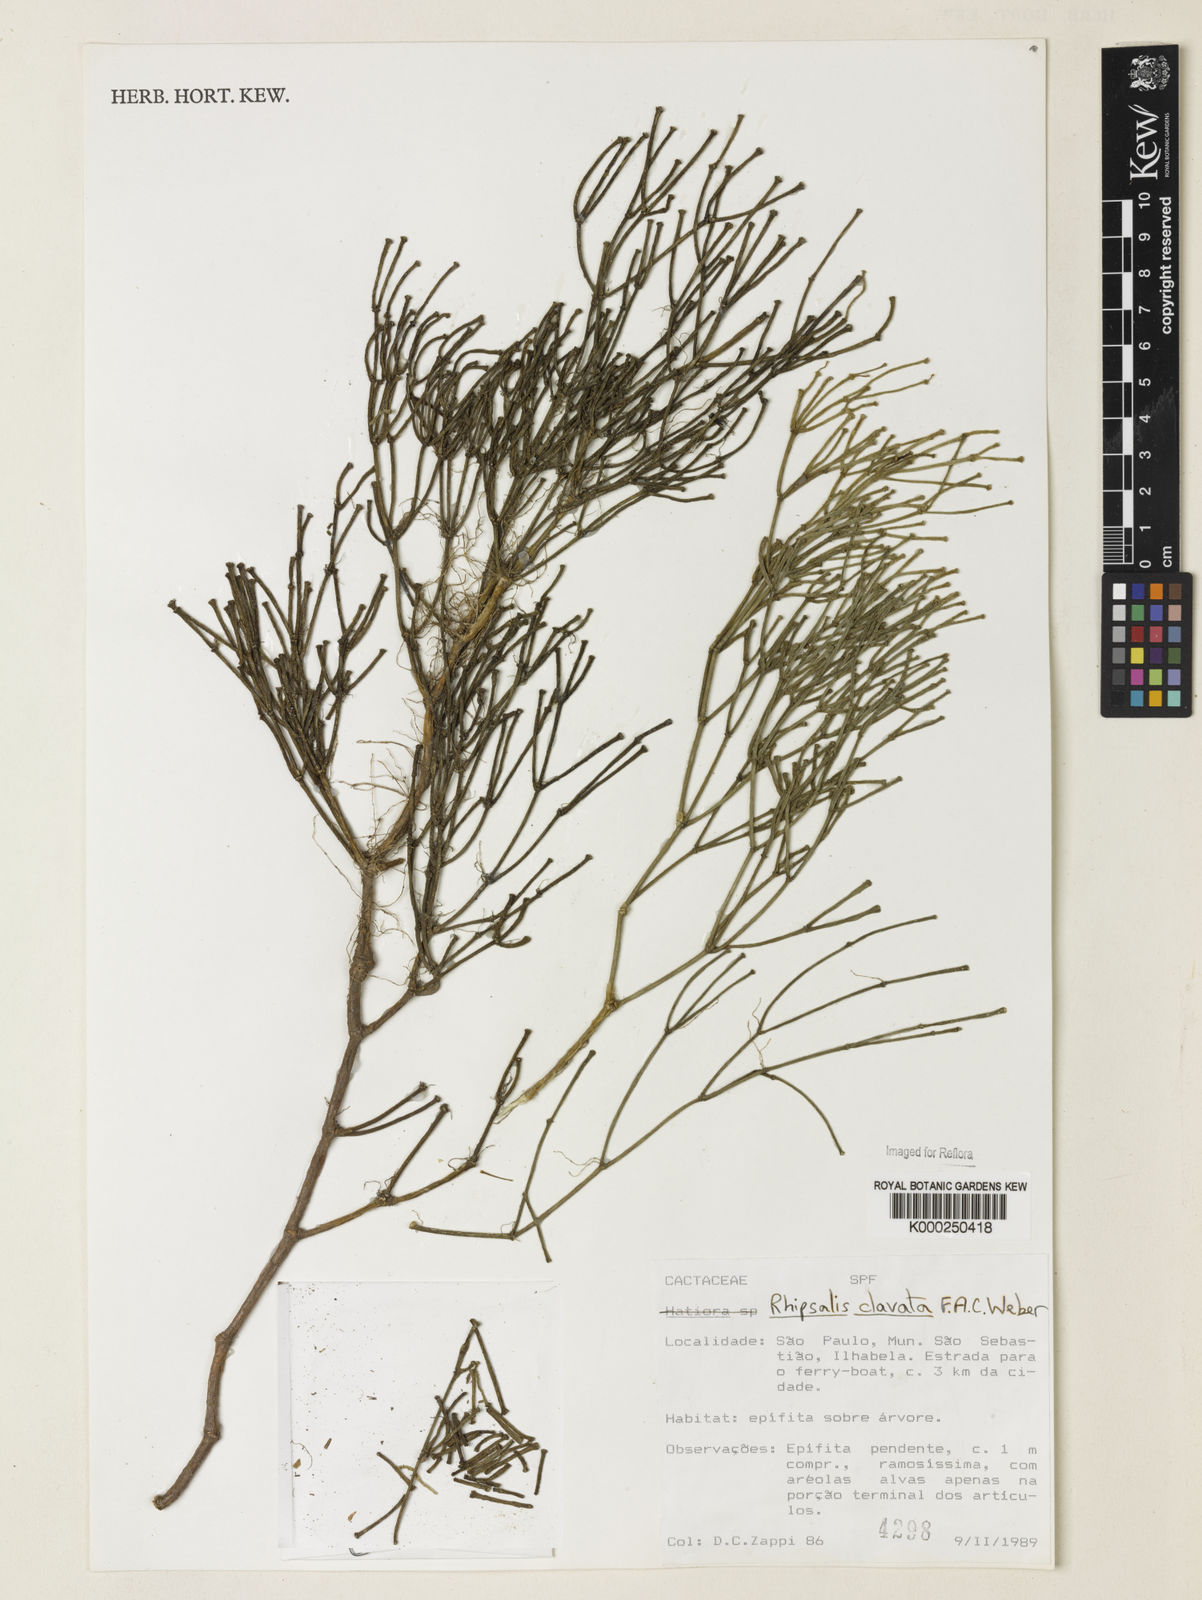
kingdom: Plantae
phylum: Tracheophyta
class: Magnoliopsida
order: Caryophyllales
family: Cactaceae
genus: Rhipsalis
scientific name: Rhipsalis clavata
